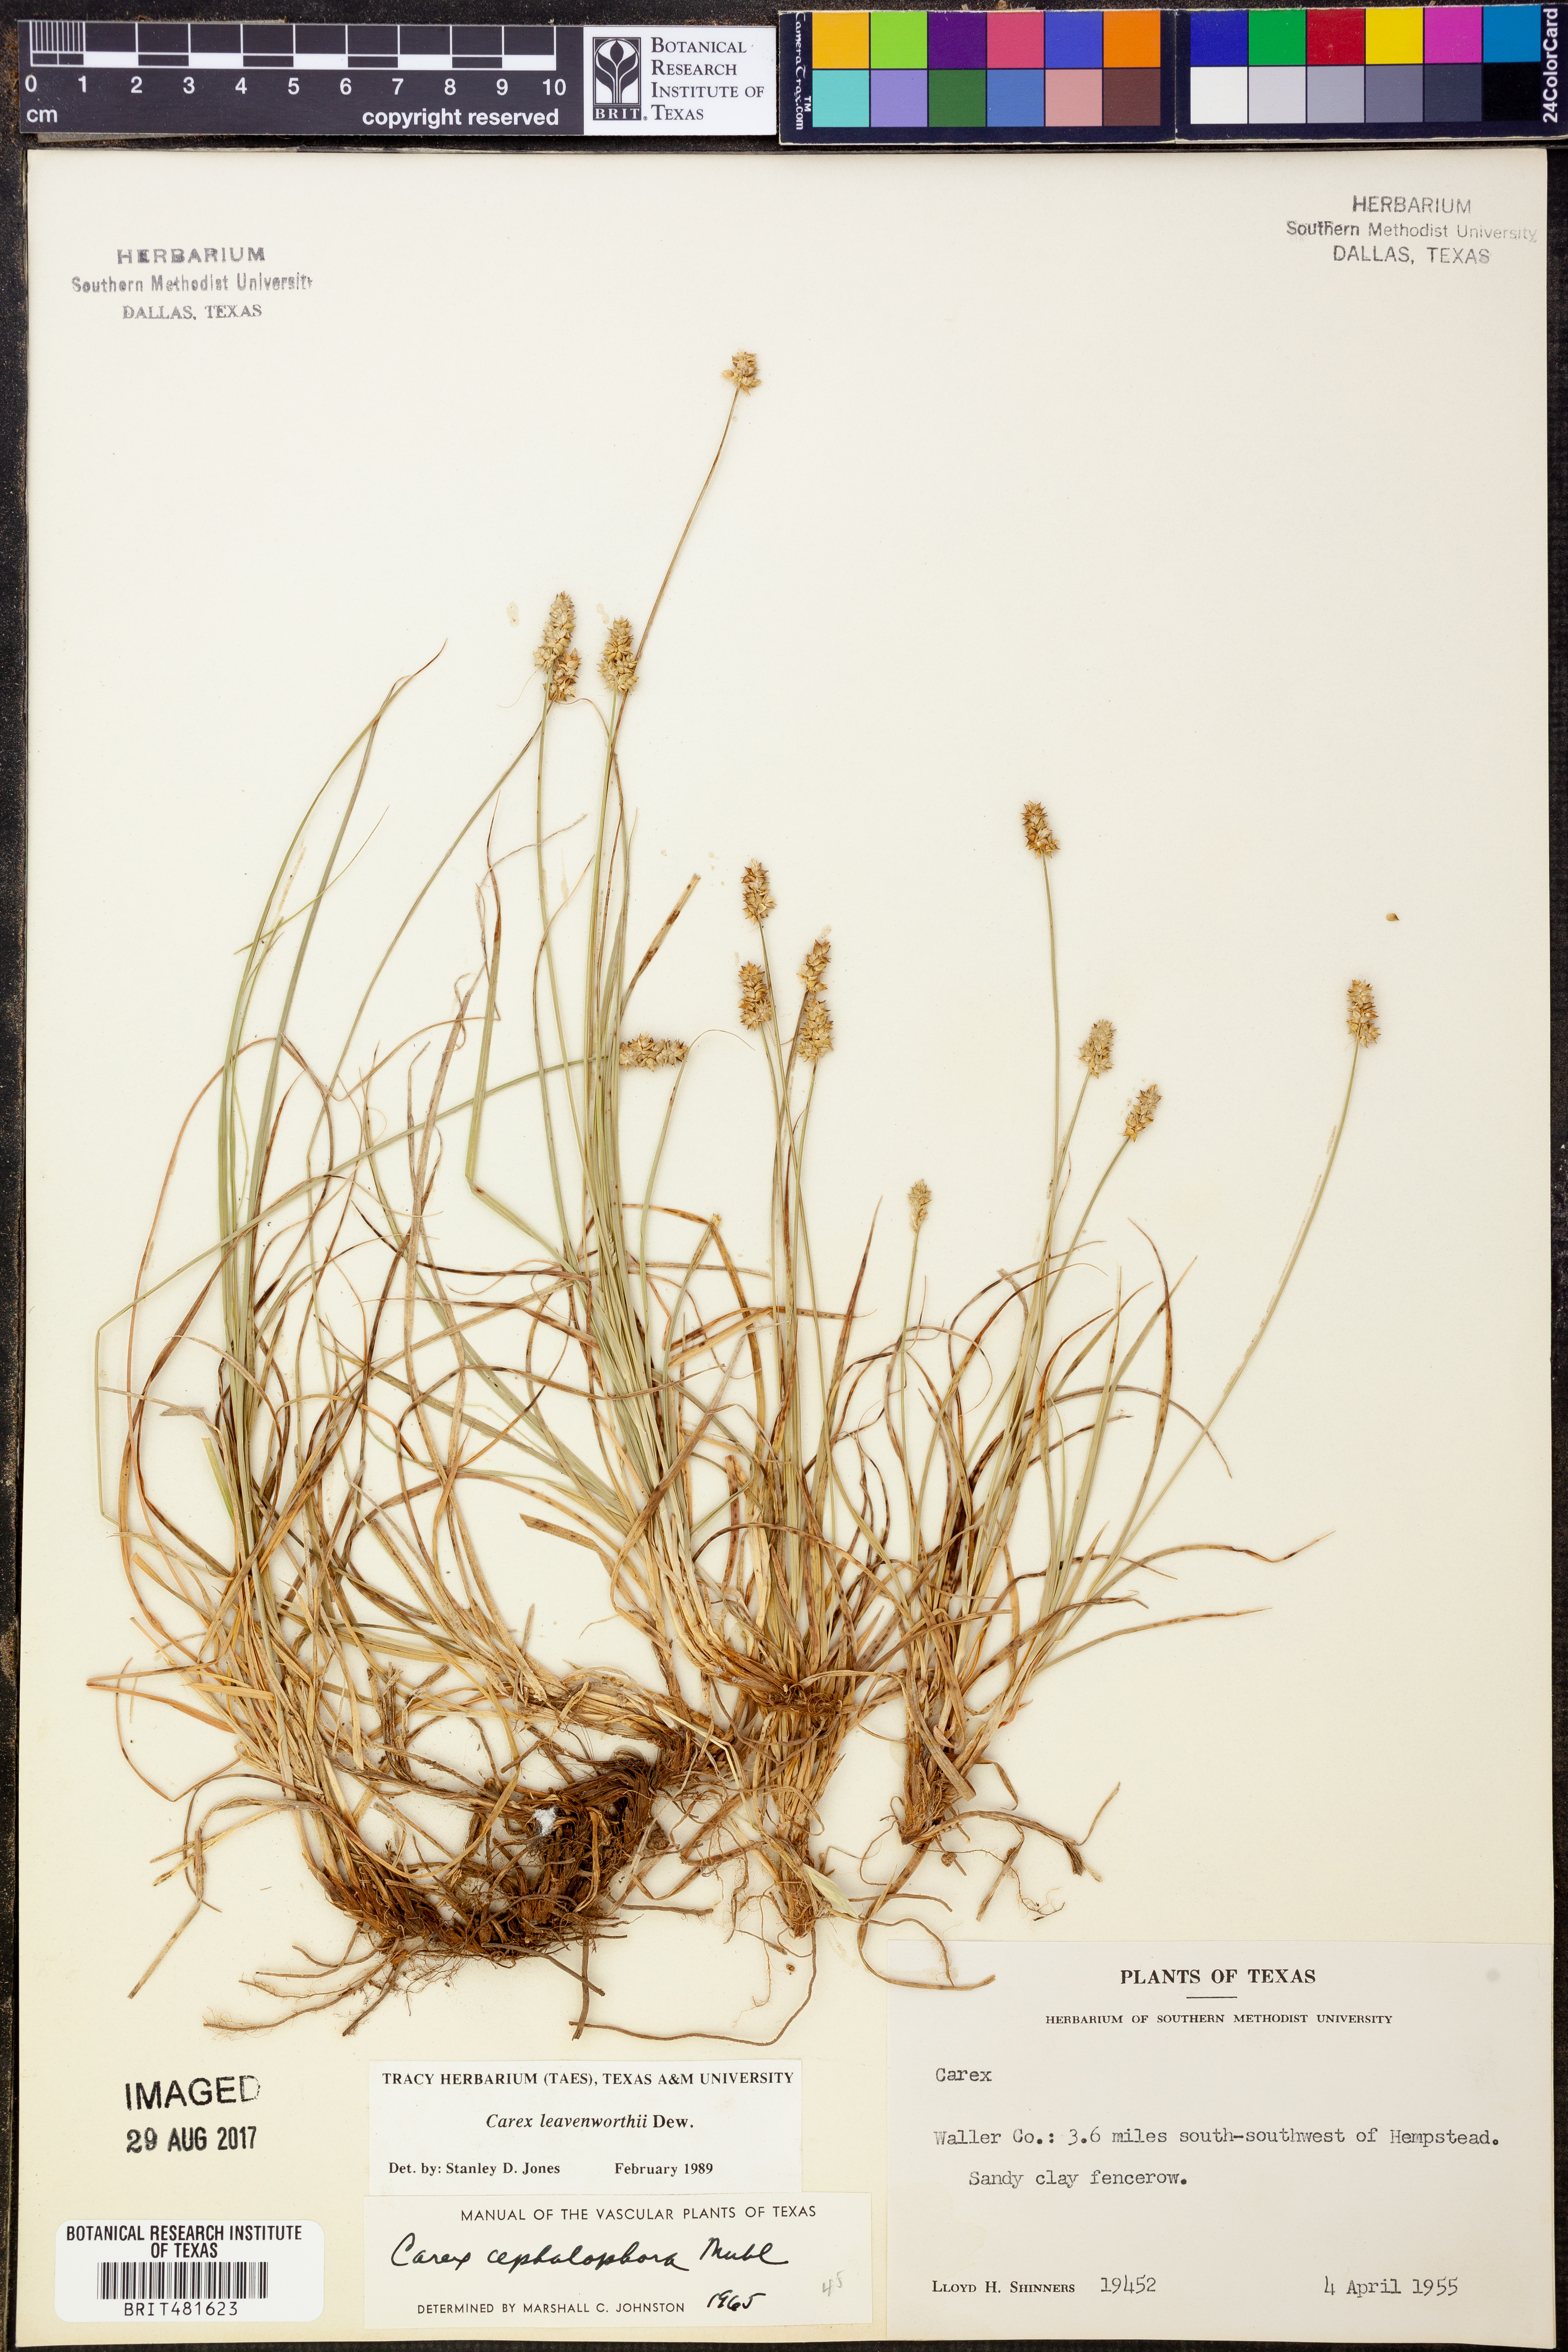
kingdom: Plantae
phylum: Tracheophyta
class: Liliopsida
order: Poales
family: Cyperaceae
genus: Carex
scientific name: Carex leavenworthii
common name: Leavenworth's bracted sedge
